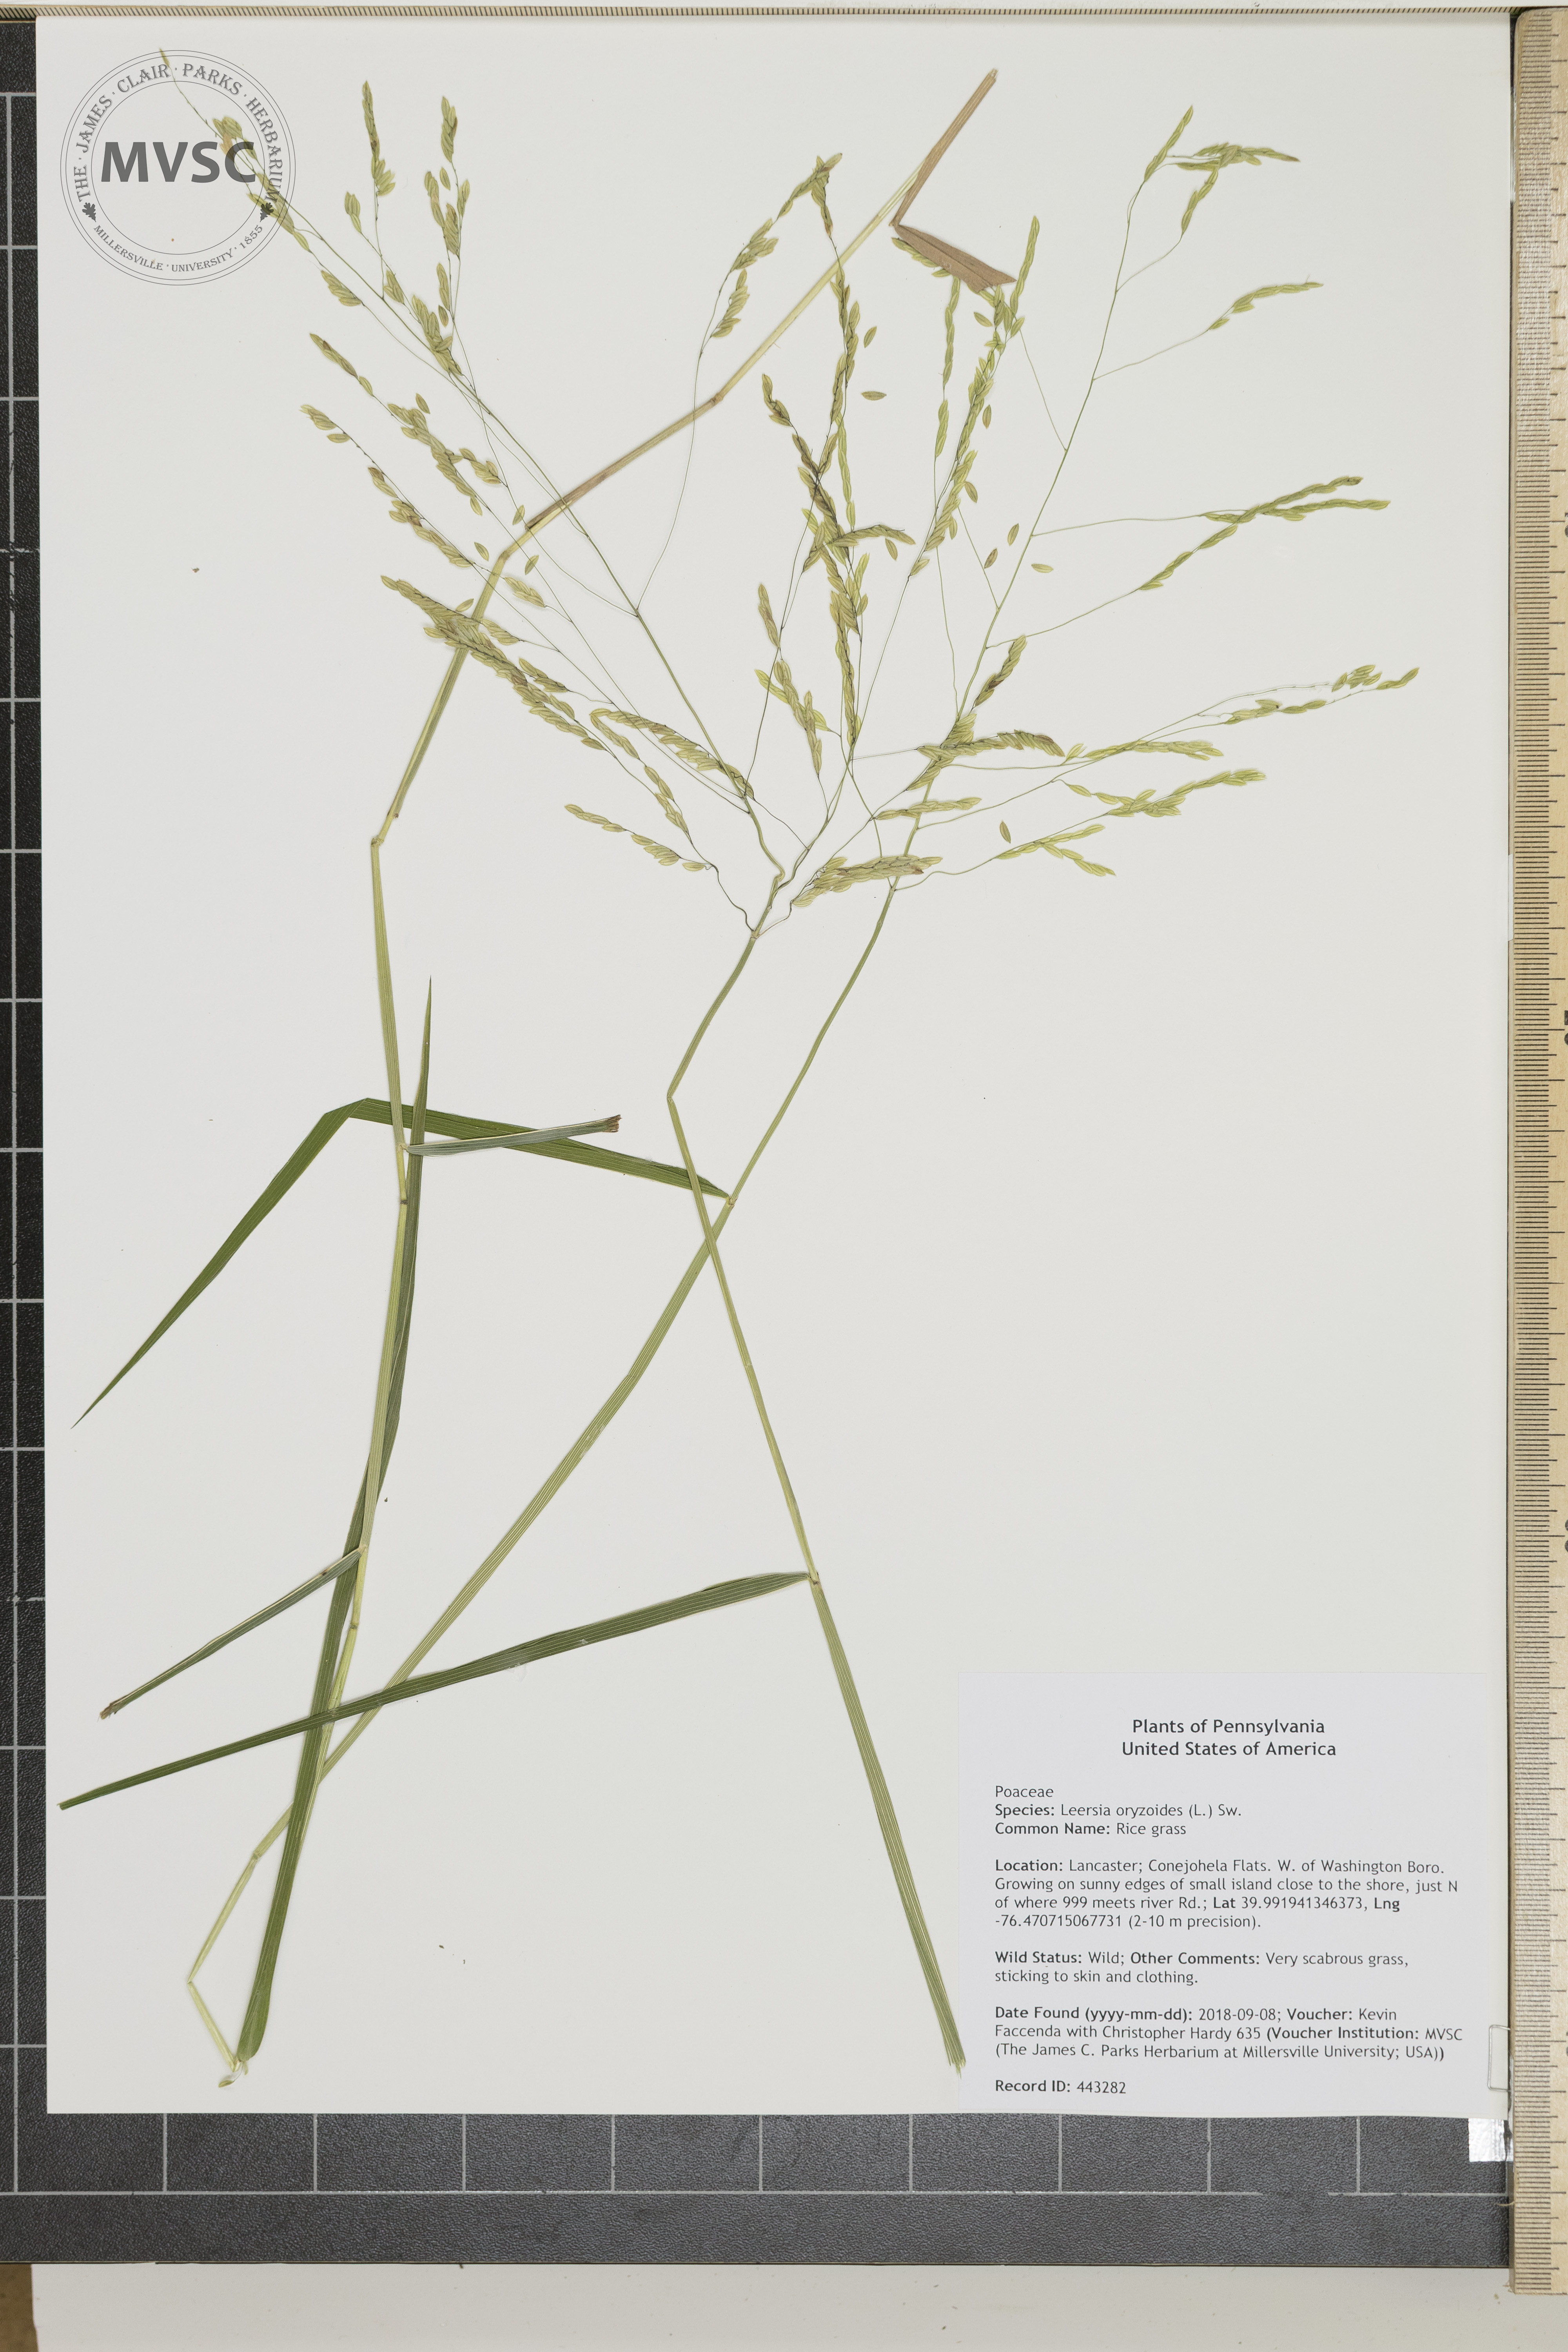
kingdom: Plantae
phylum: Tracheophyta
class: Liliopsida
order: Poales
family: Poaceae
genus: Leersia
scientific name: Leersia oryzoides
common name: Rice grass
